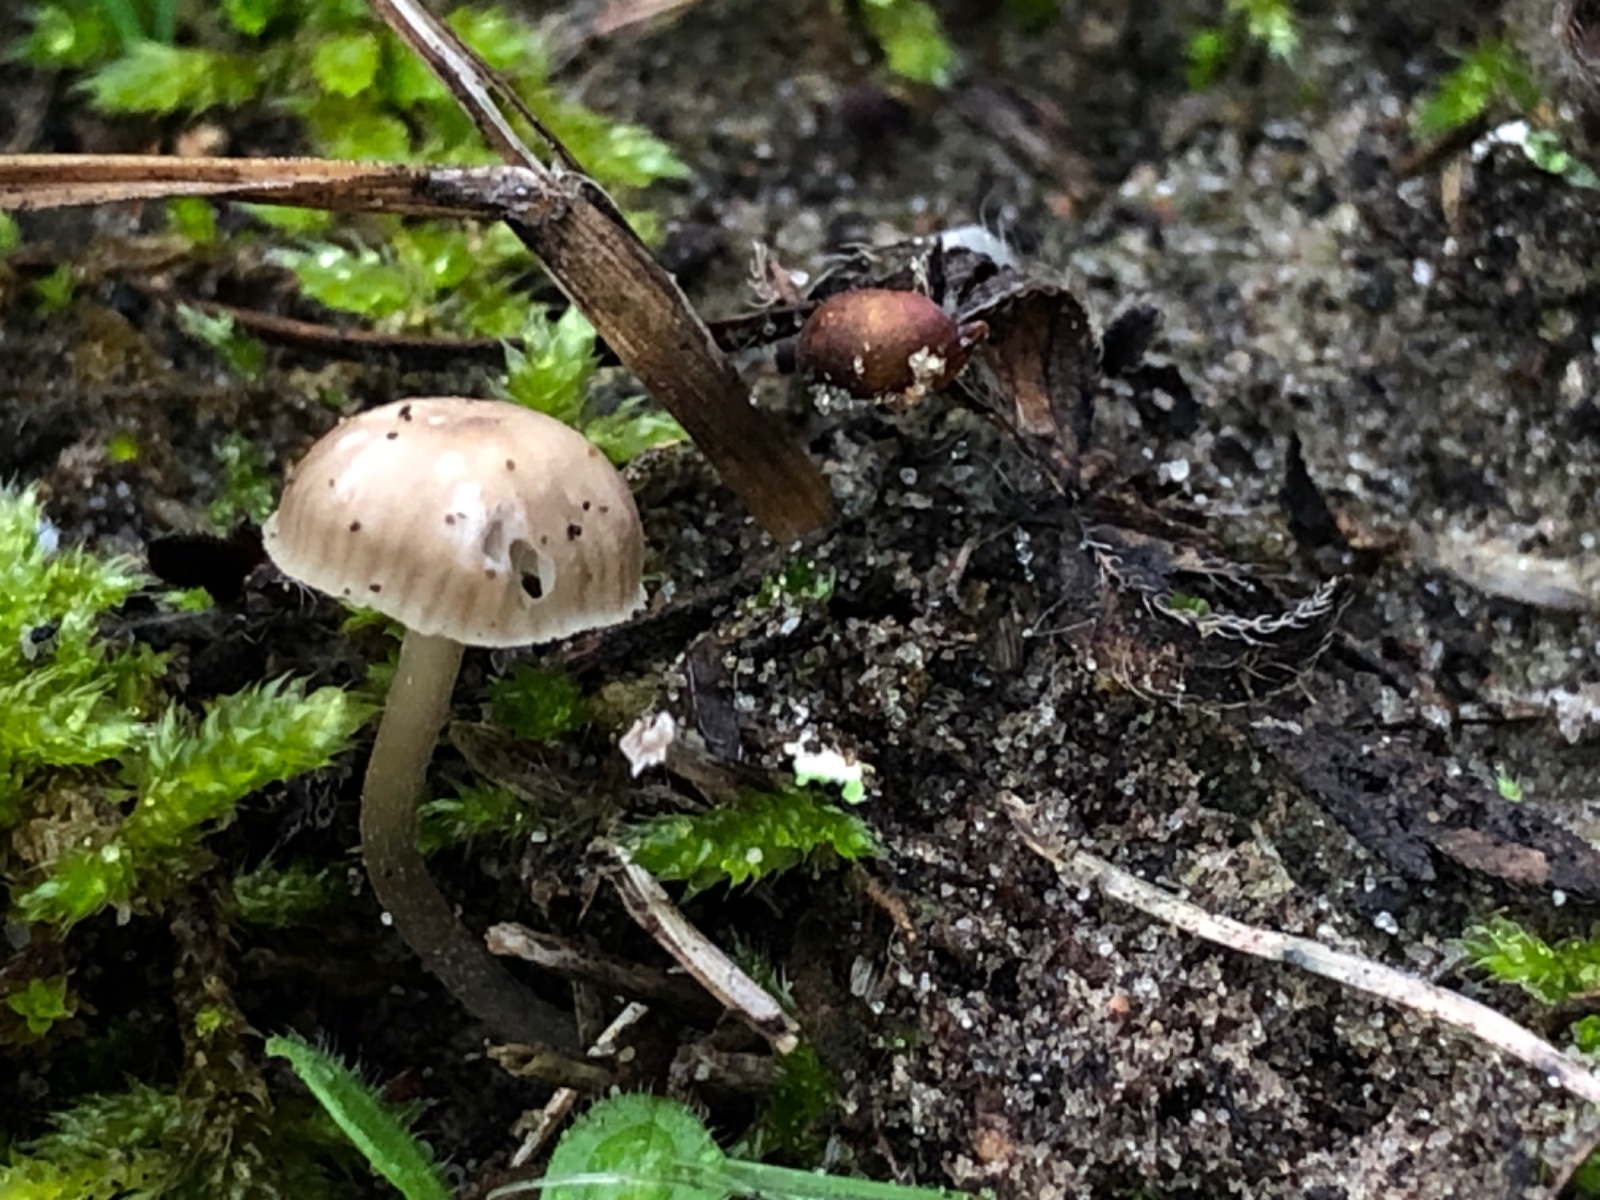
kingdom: Fungi
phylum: Basidiomycota
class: Agaricomycetes
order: Agaricales
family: Mycenaceae
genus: Mycena
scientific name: Mycena pseudopicta
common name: overdrevs-huesvamp
